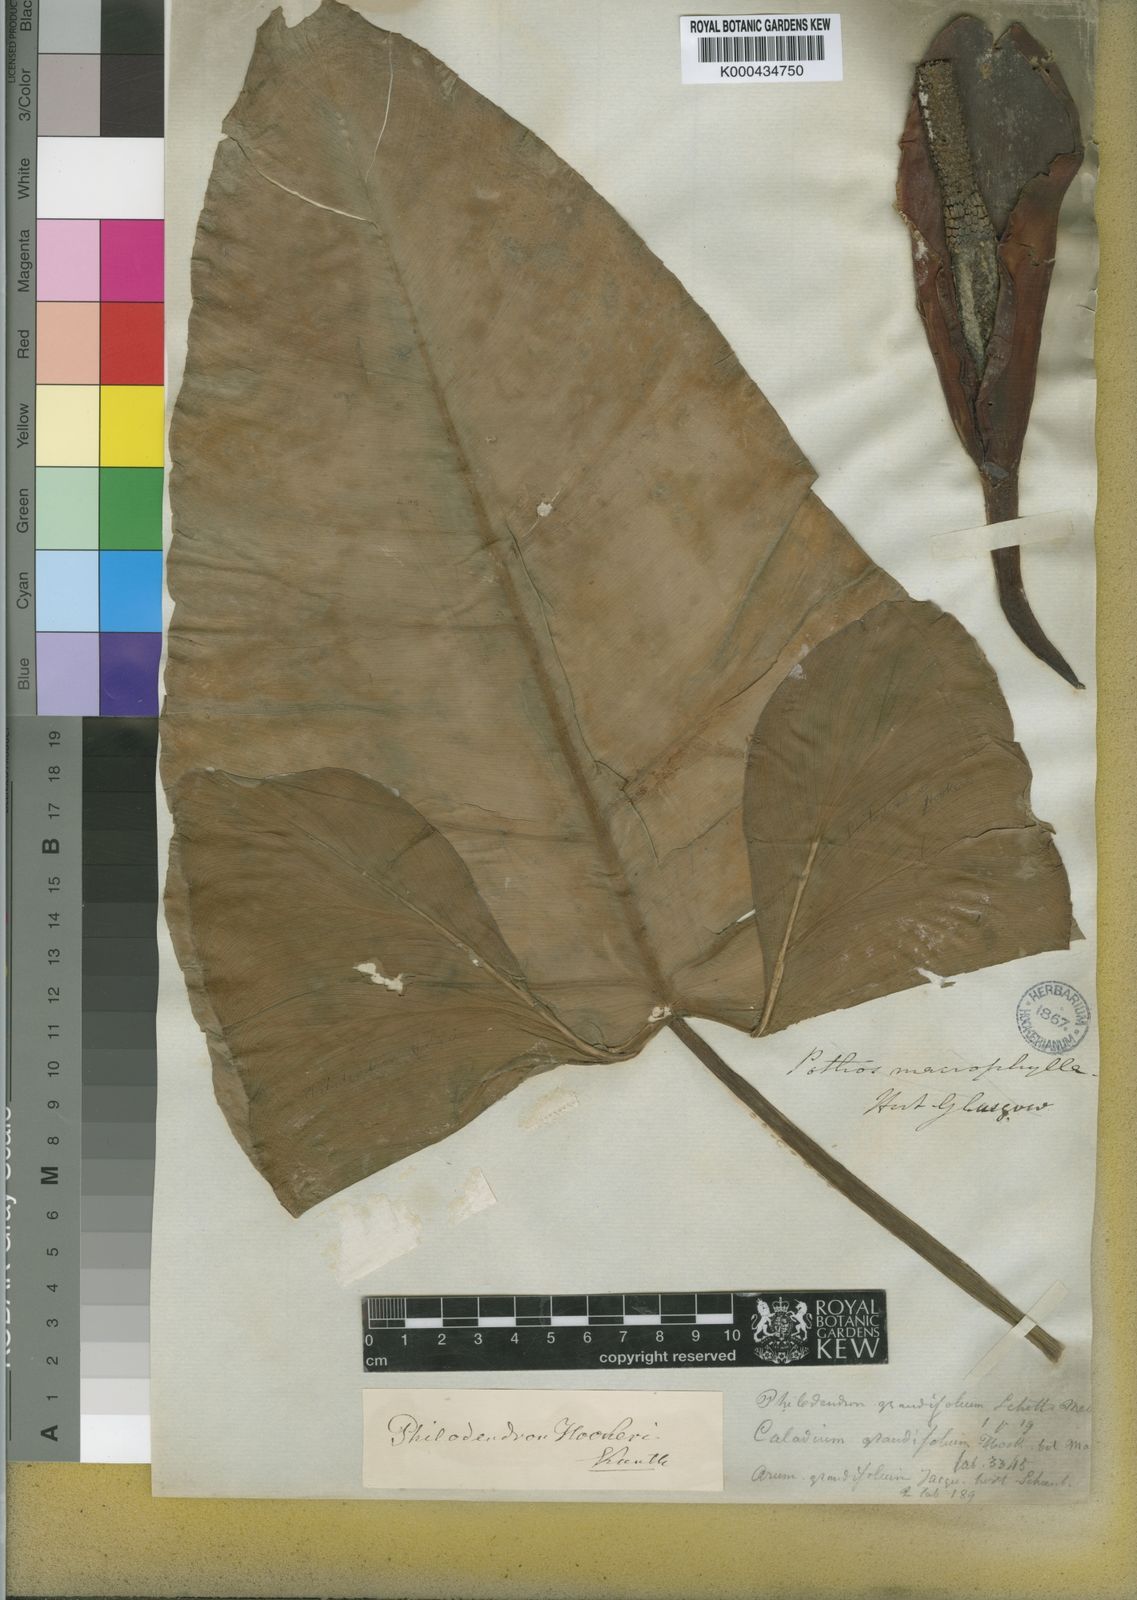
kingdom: Plantae
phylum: Tracheophyta
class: Liliopsida
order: Alismatales
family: Araceae
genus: Philodendron
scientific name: Philodendron latifolium
